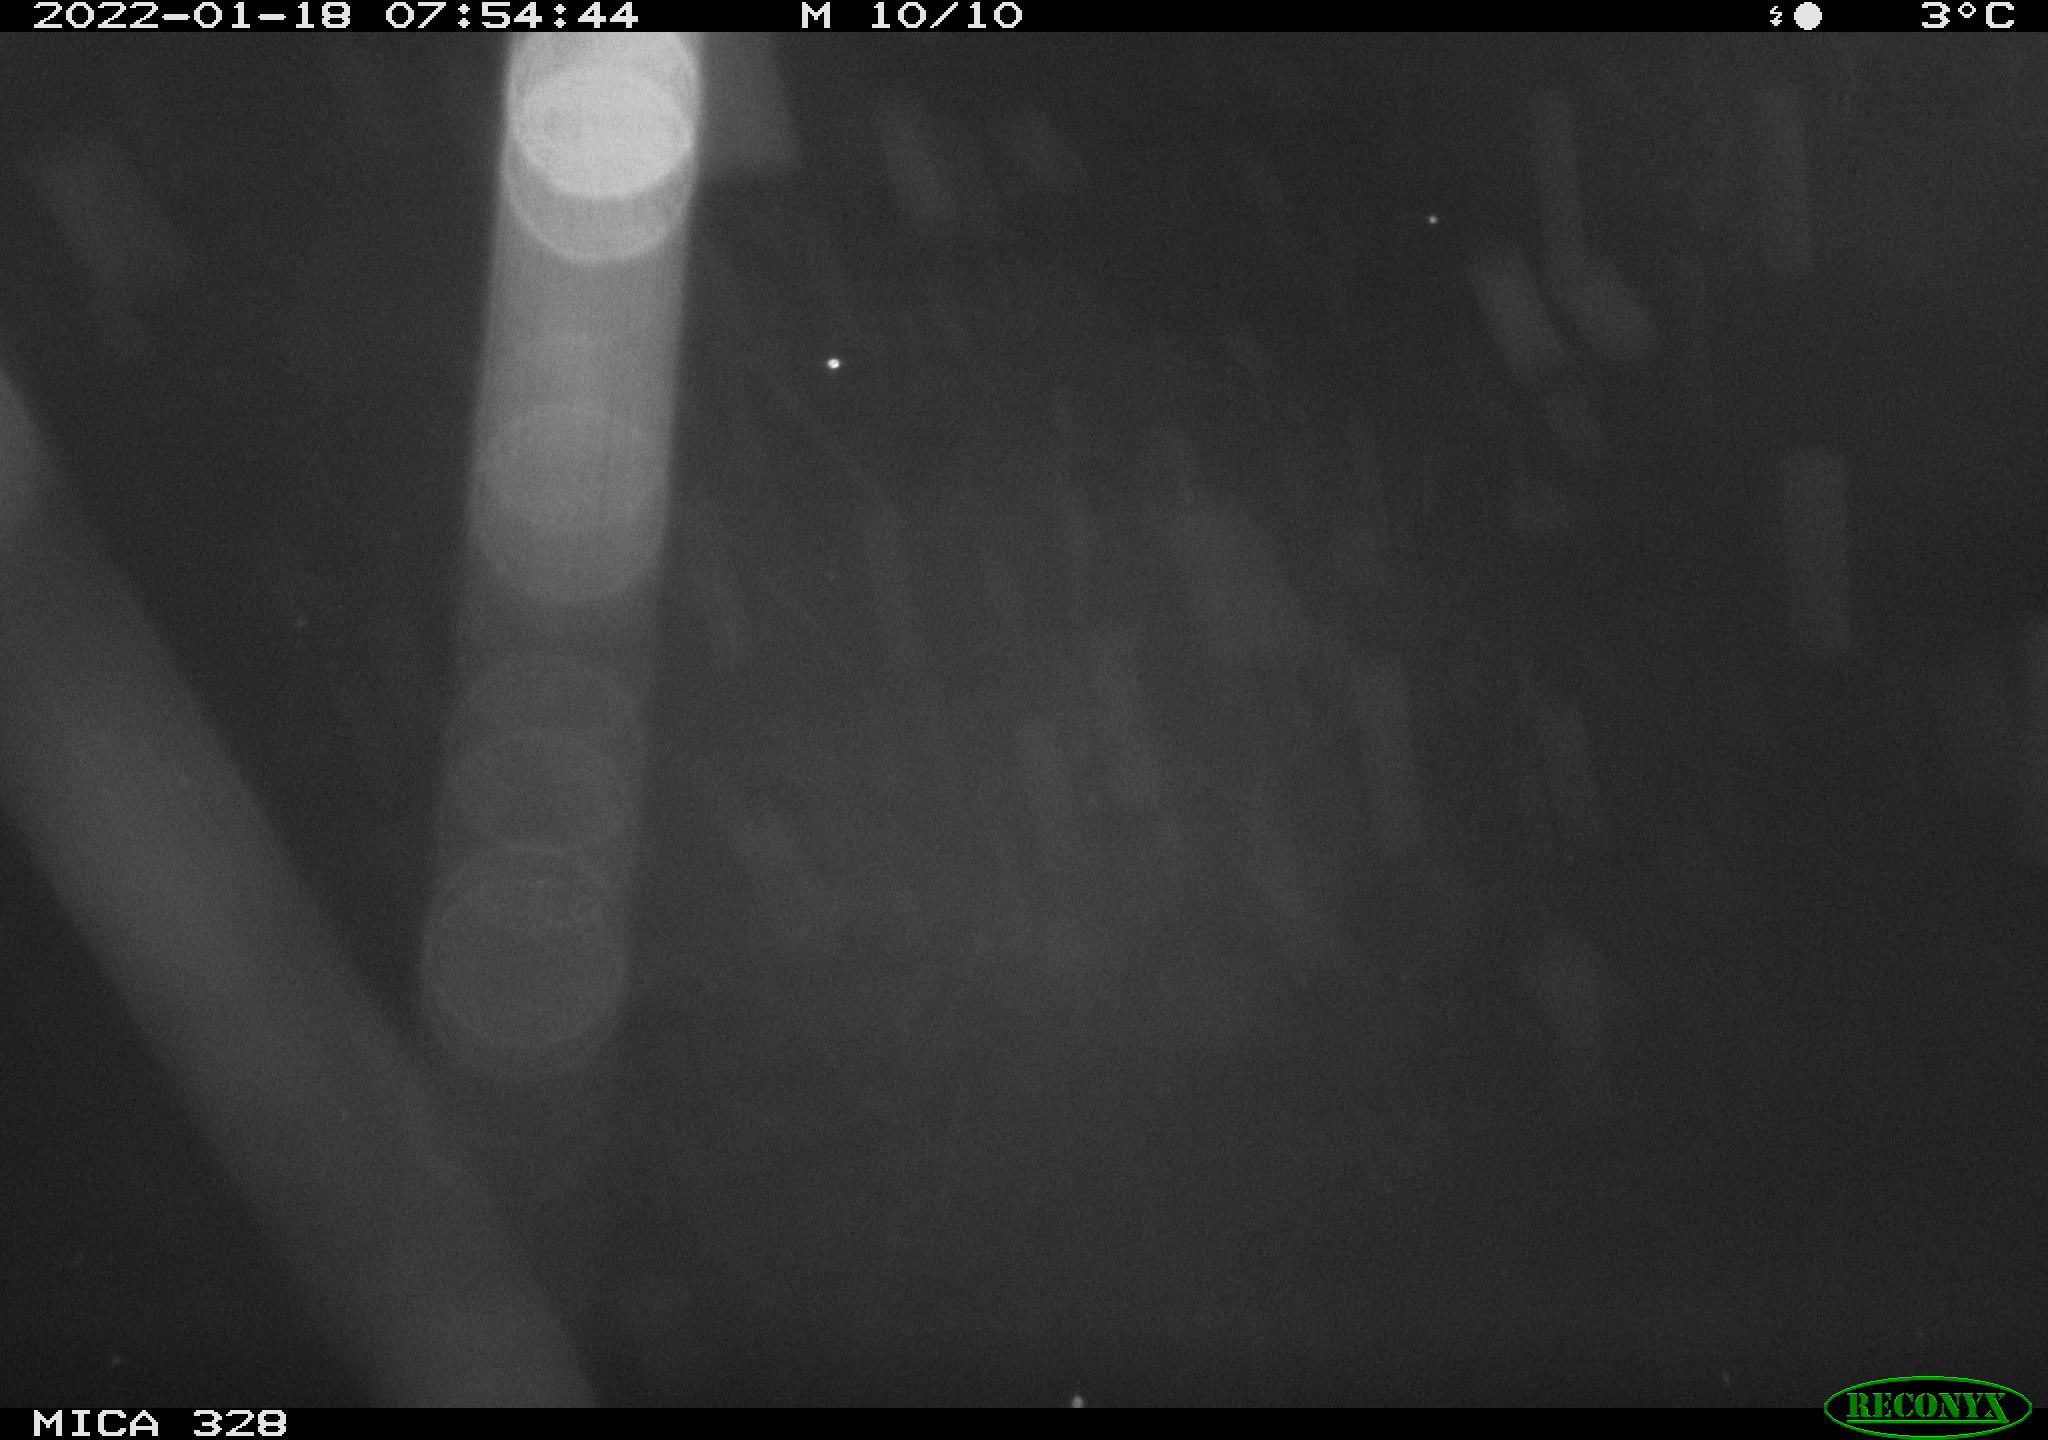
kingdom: Animalia
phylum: Chordata
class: Mammalia
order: Rodentia
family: Cricetidae
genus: Ondatra
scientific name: Ondatra zibethicus
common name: Muskrat
